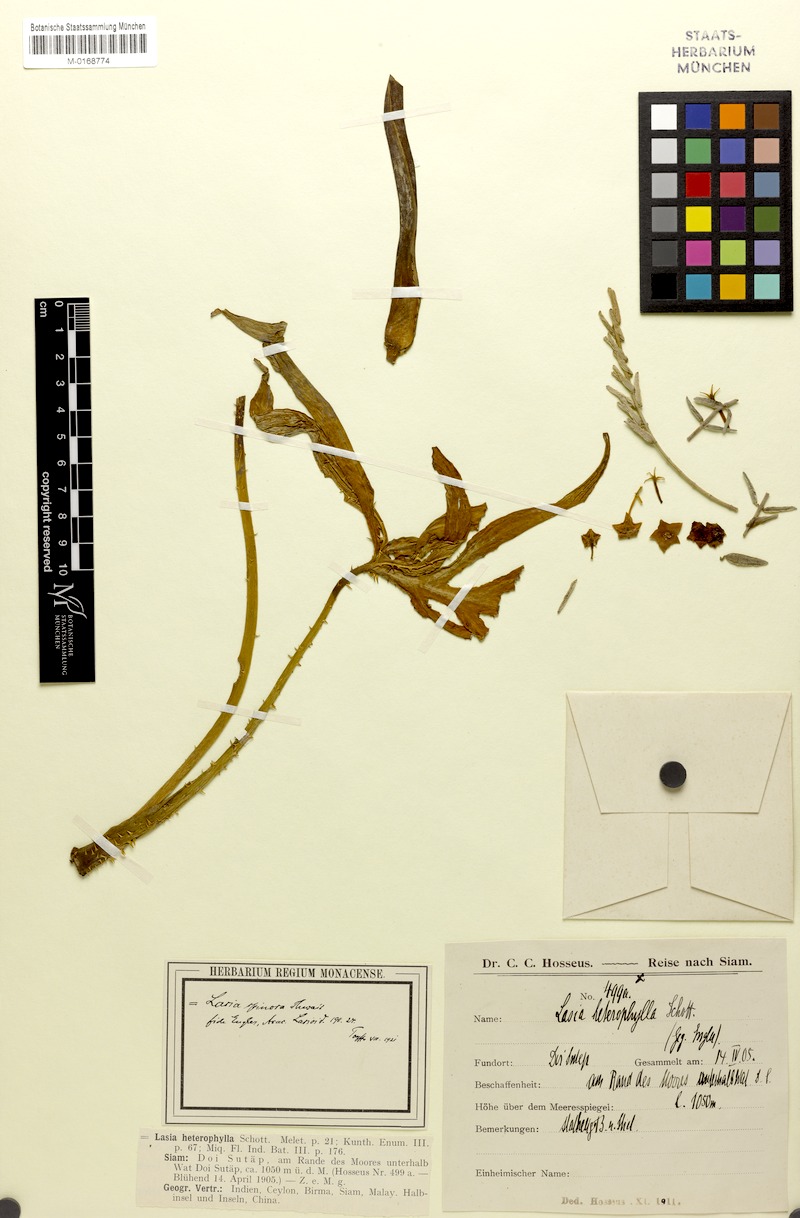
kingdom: Plantae
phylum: Tracheophyta
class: Liliopsida
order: Alismatales
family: Araceae
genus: Lasia
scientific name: Lasia spinosa
